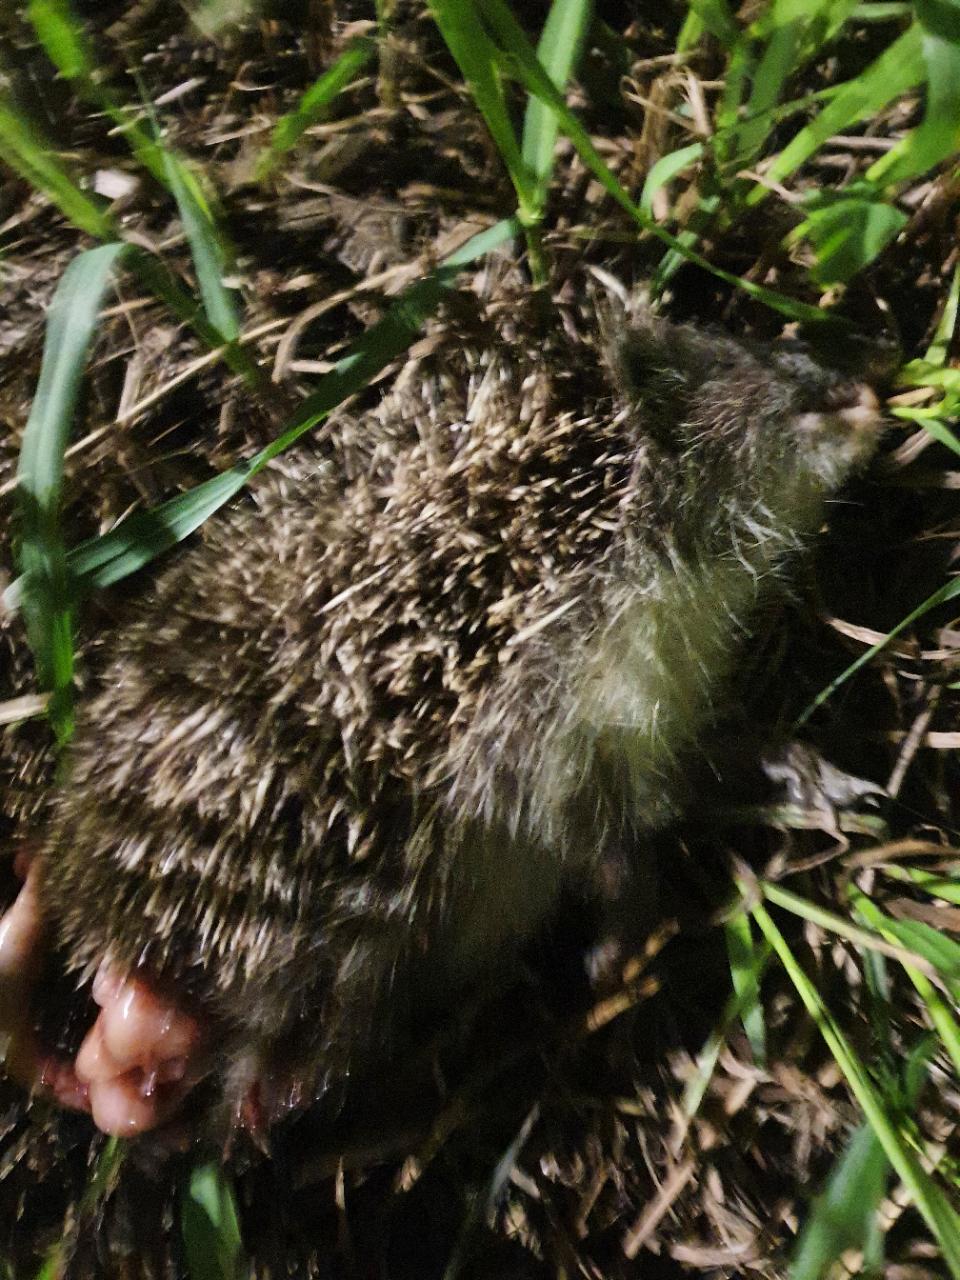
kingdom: Animalia
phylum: Chordata
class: Mammalia
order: Erinaceomorpha
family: Erinaceidae
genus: Erinaceus
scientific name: Erinaceus
